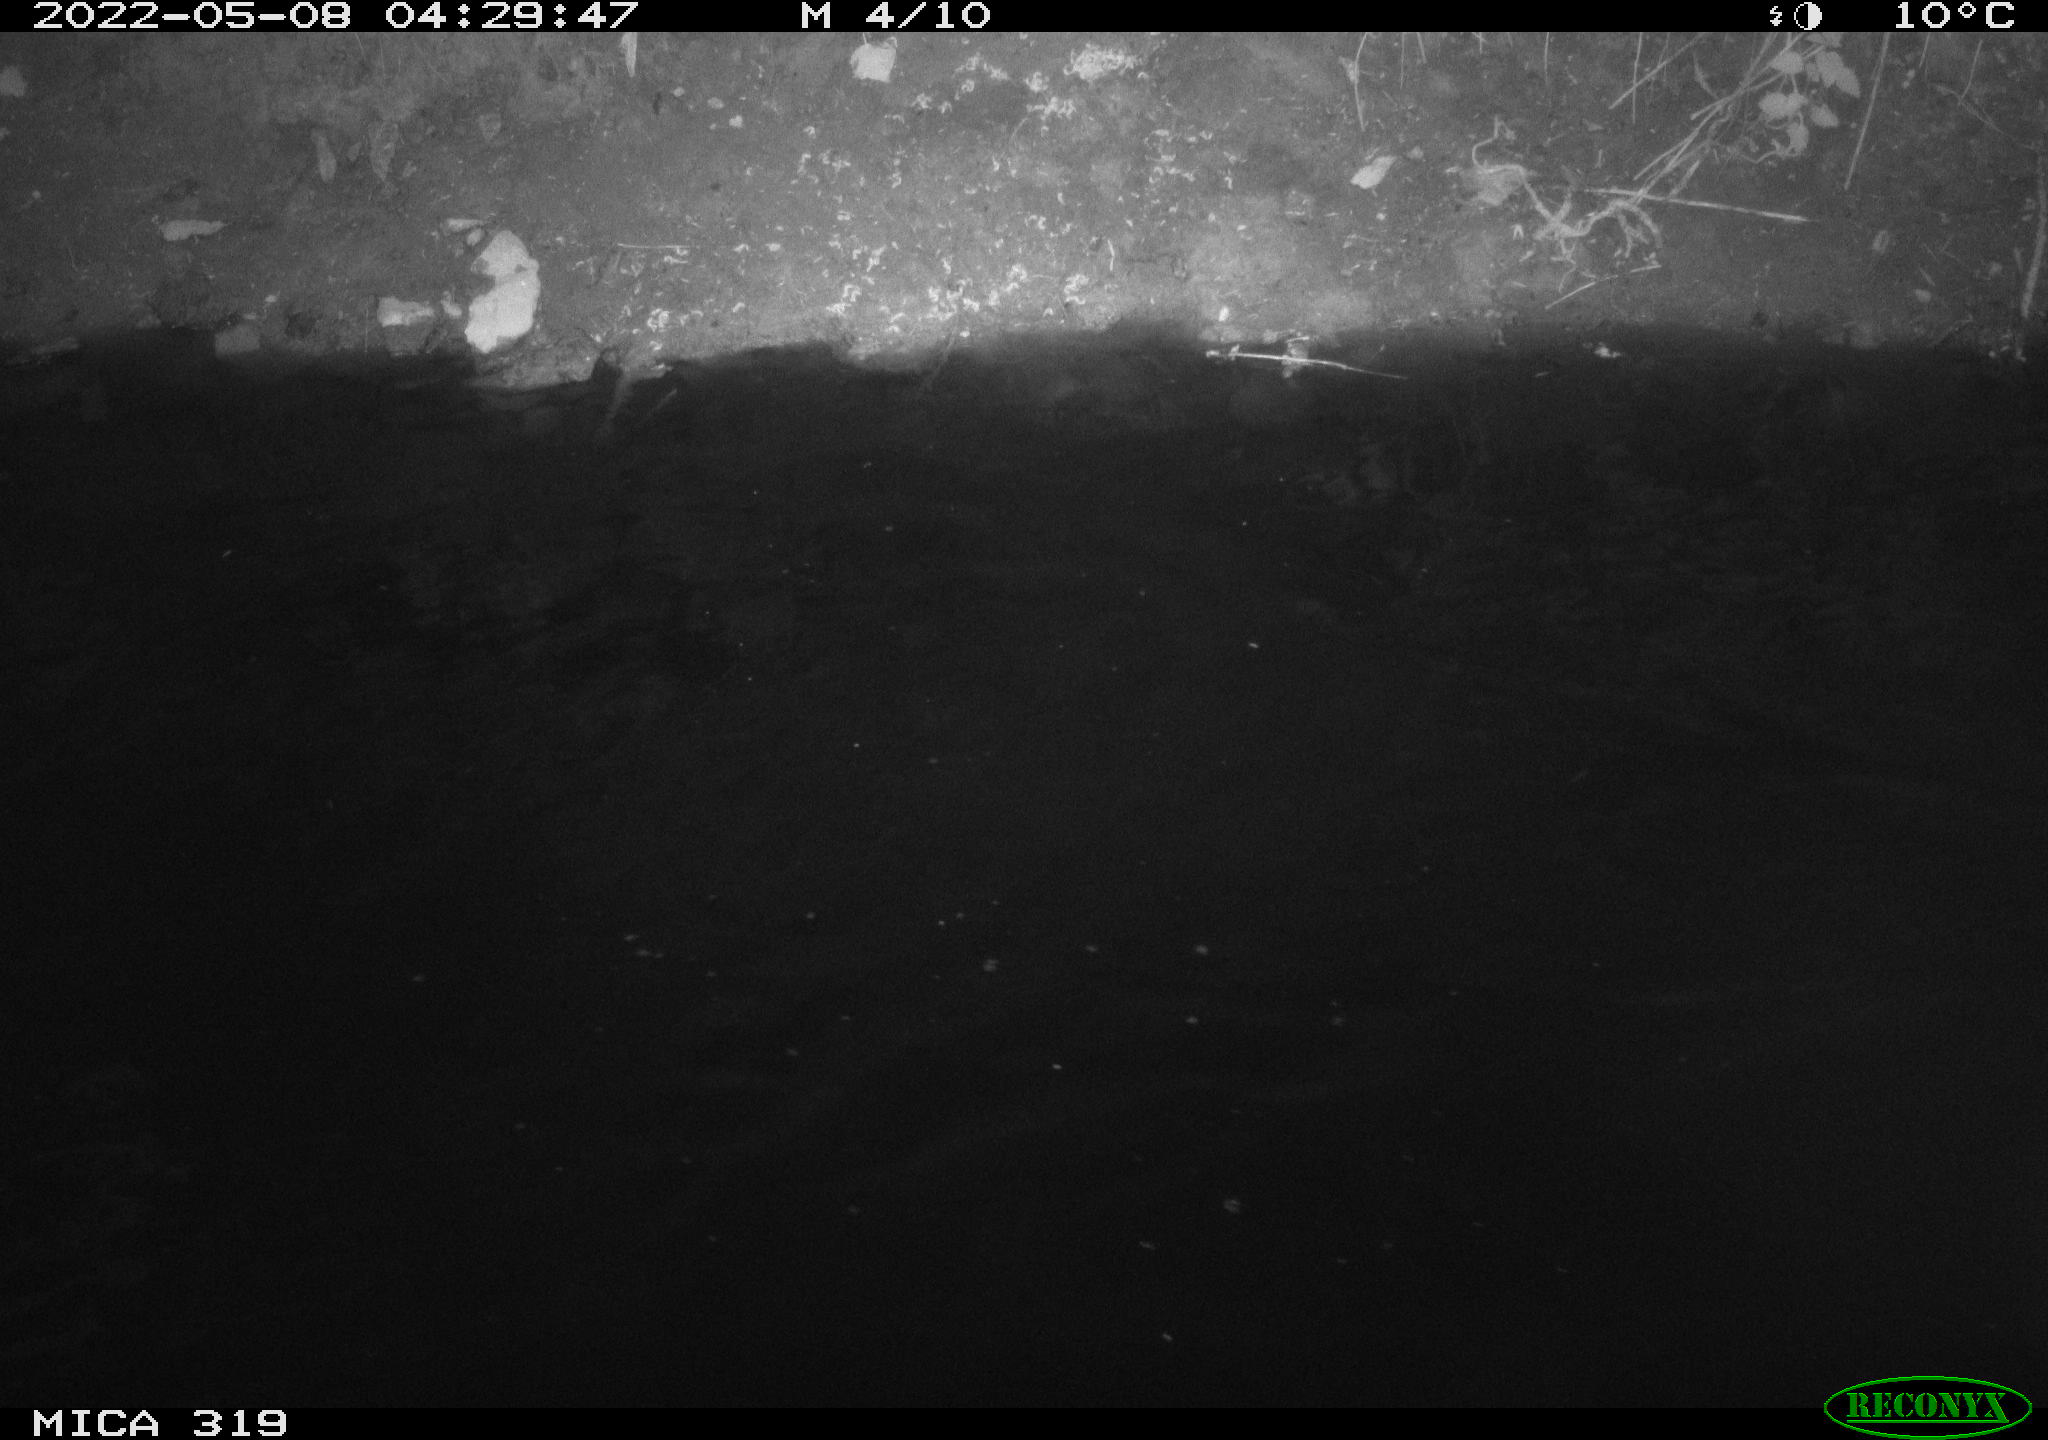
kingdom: Animalia
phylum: Chordata
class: Aves
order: Anseriformes
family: Anatidae
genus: Anas
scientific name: Anas platyrhynchos
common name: Mallard
